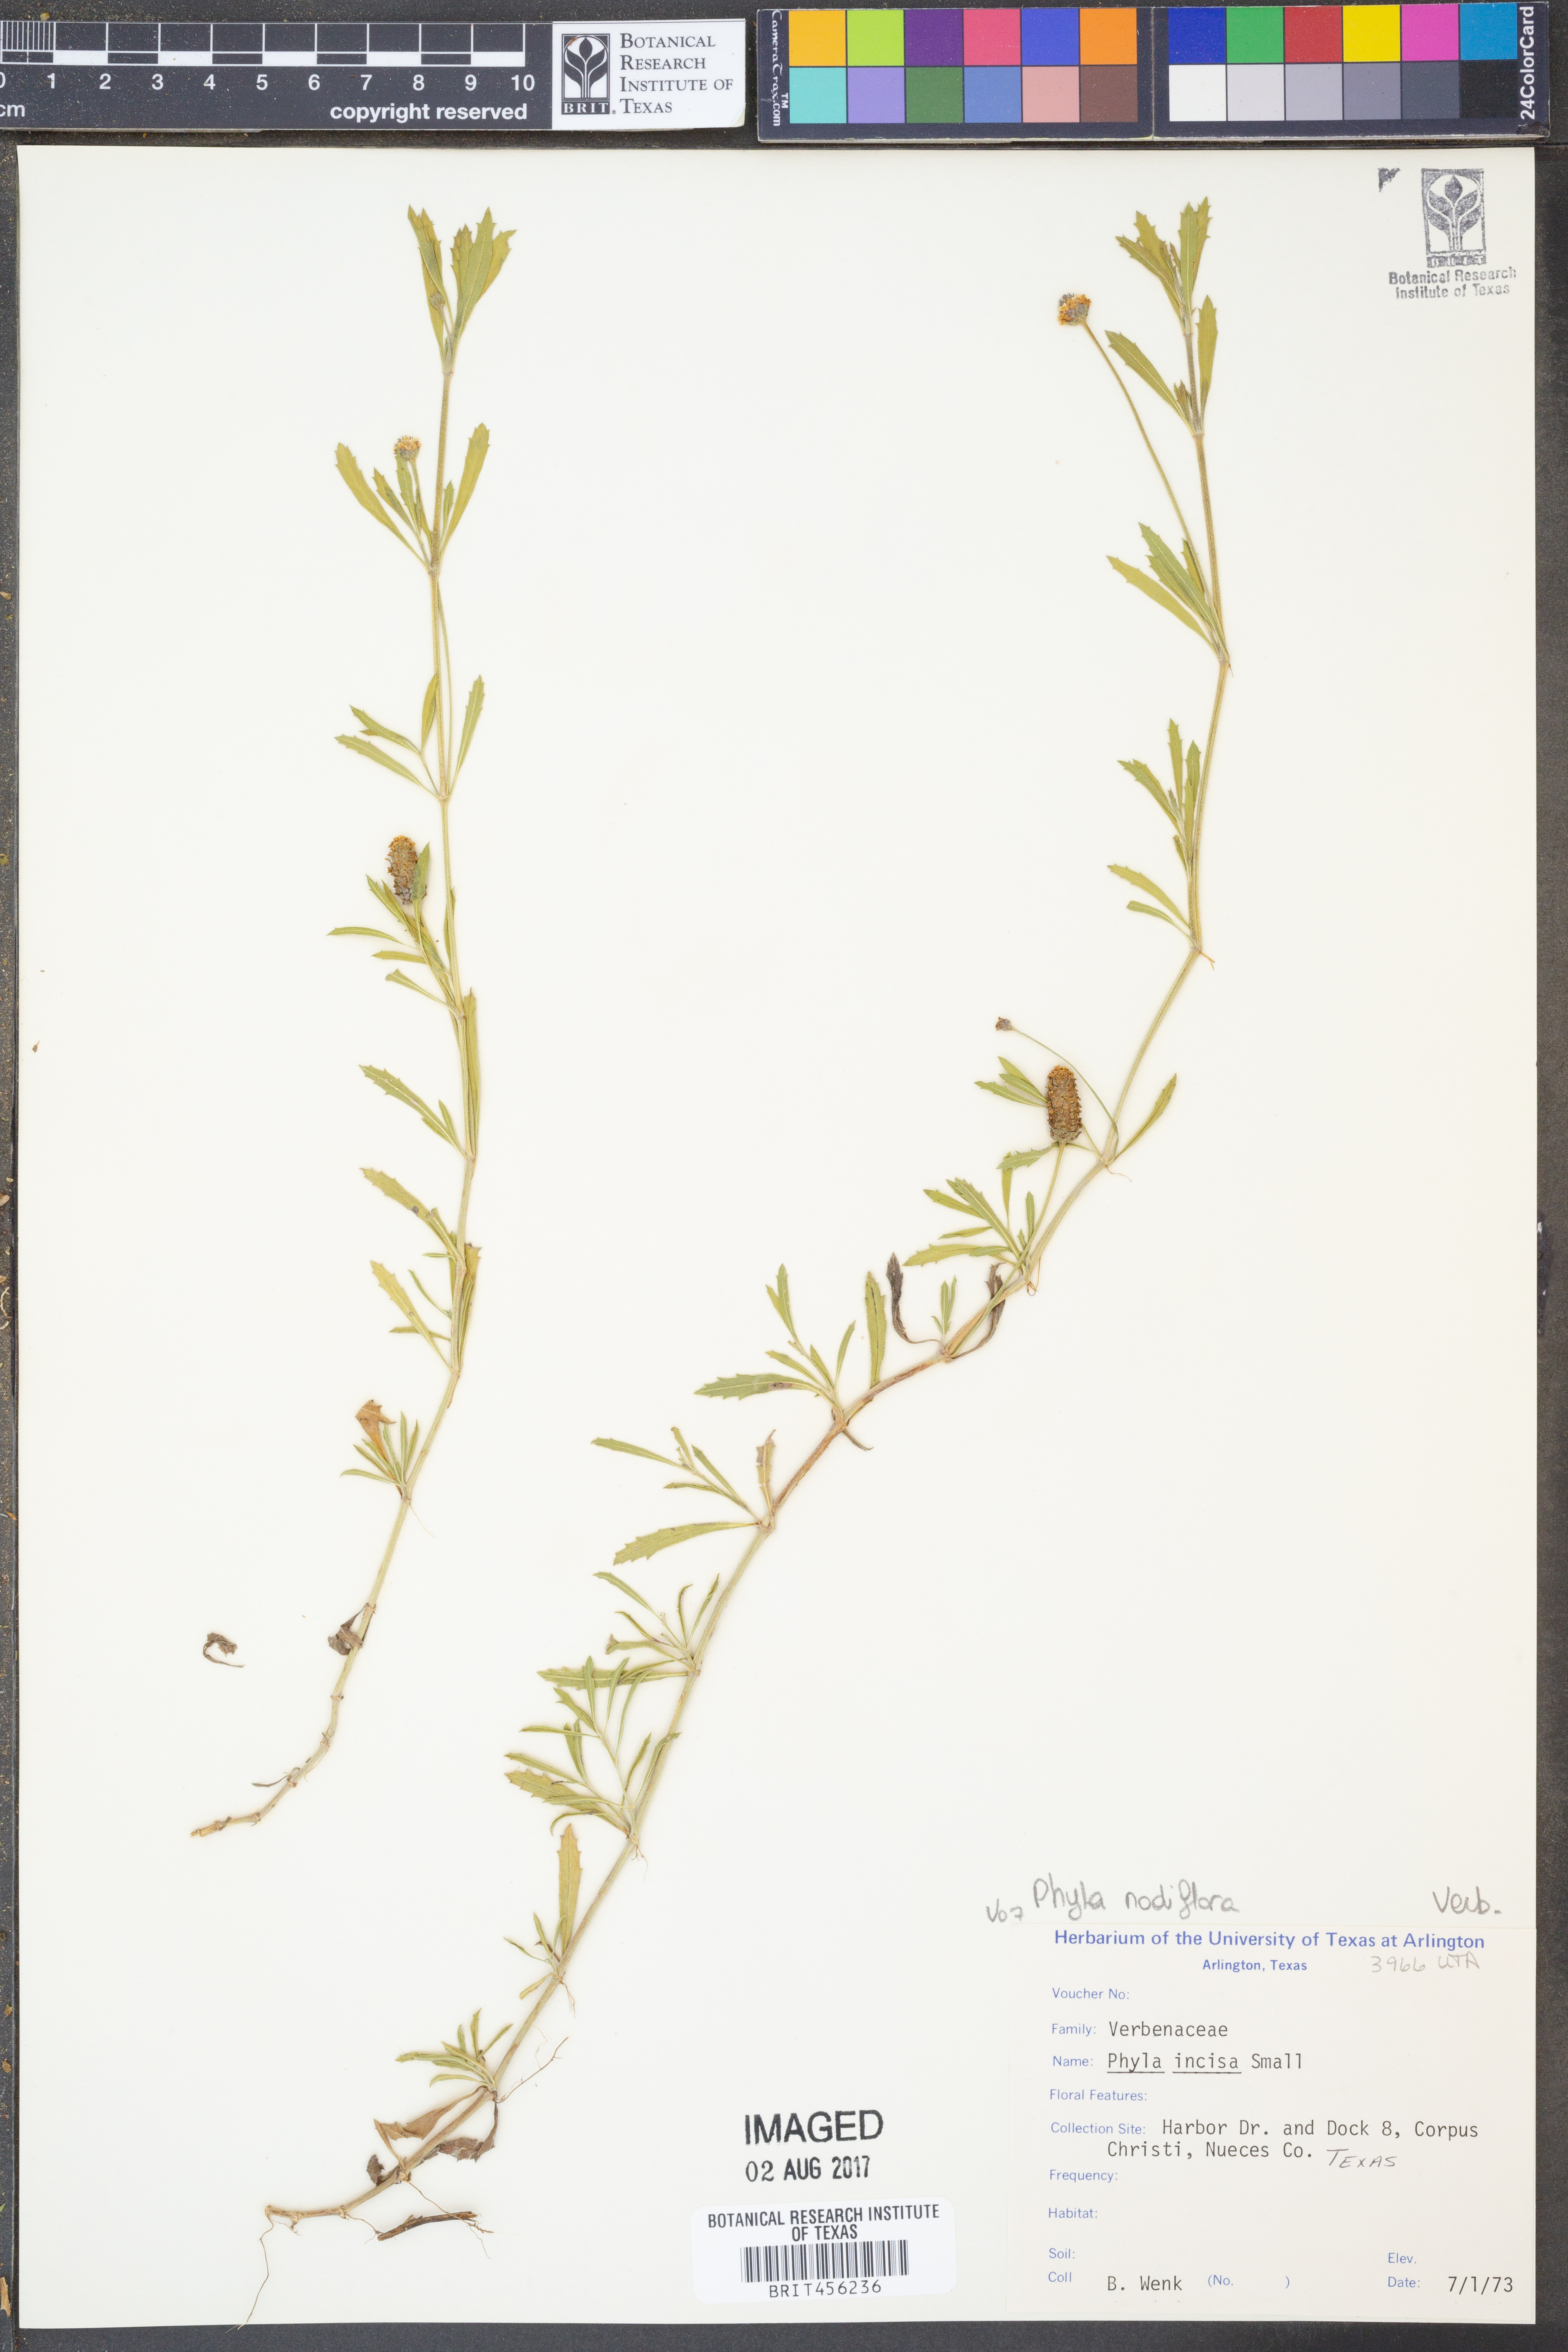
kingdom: Plantae
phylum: Tracheophyta
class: Magnoliopsida
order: Lamiales
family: Verbenaceae
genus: Phyla
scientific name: Phyla nodiflora
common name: Frogfruit
